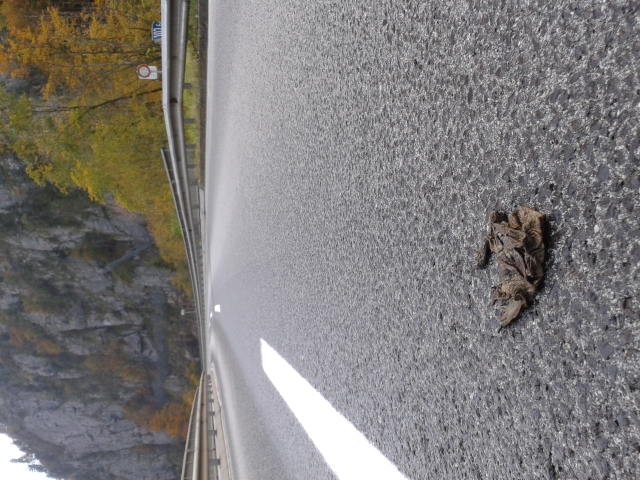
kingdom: Animalia
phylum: Chordata
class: Amphibia
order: Anura
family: Bufonidae
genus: Bufo
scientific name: Bufo bufo
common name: Common toad
